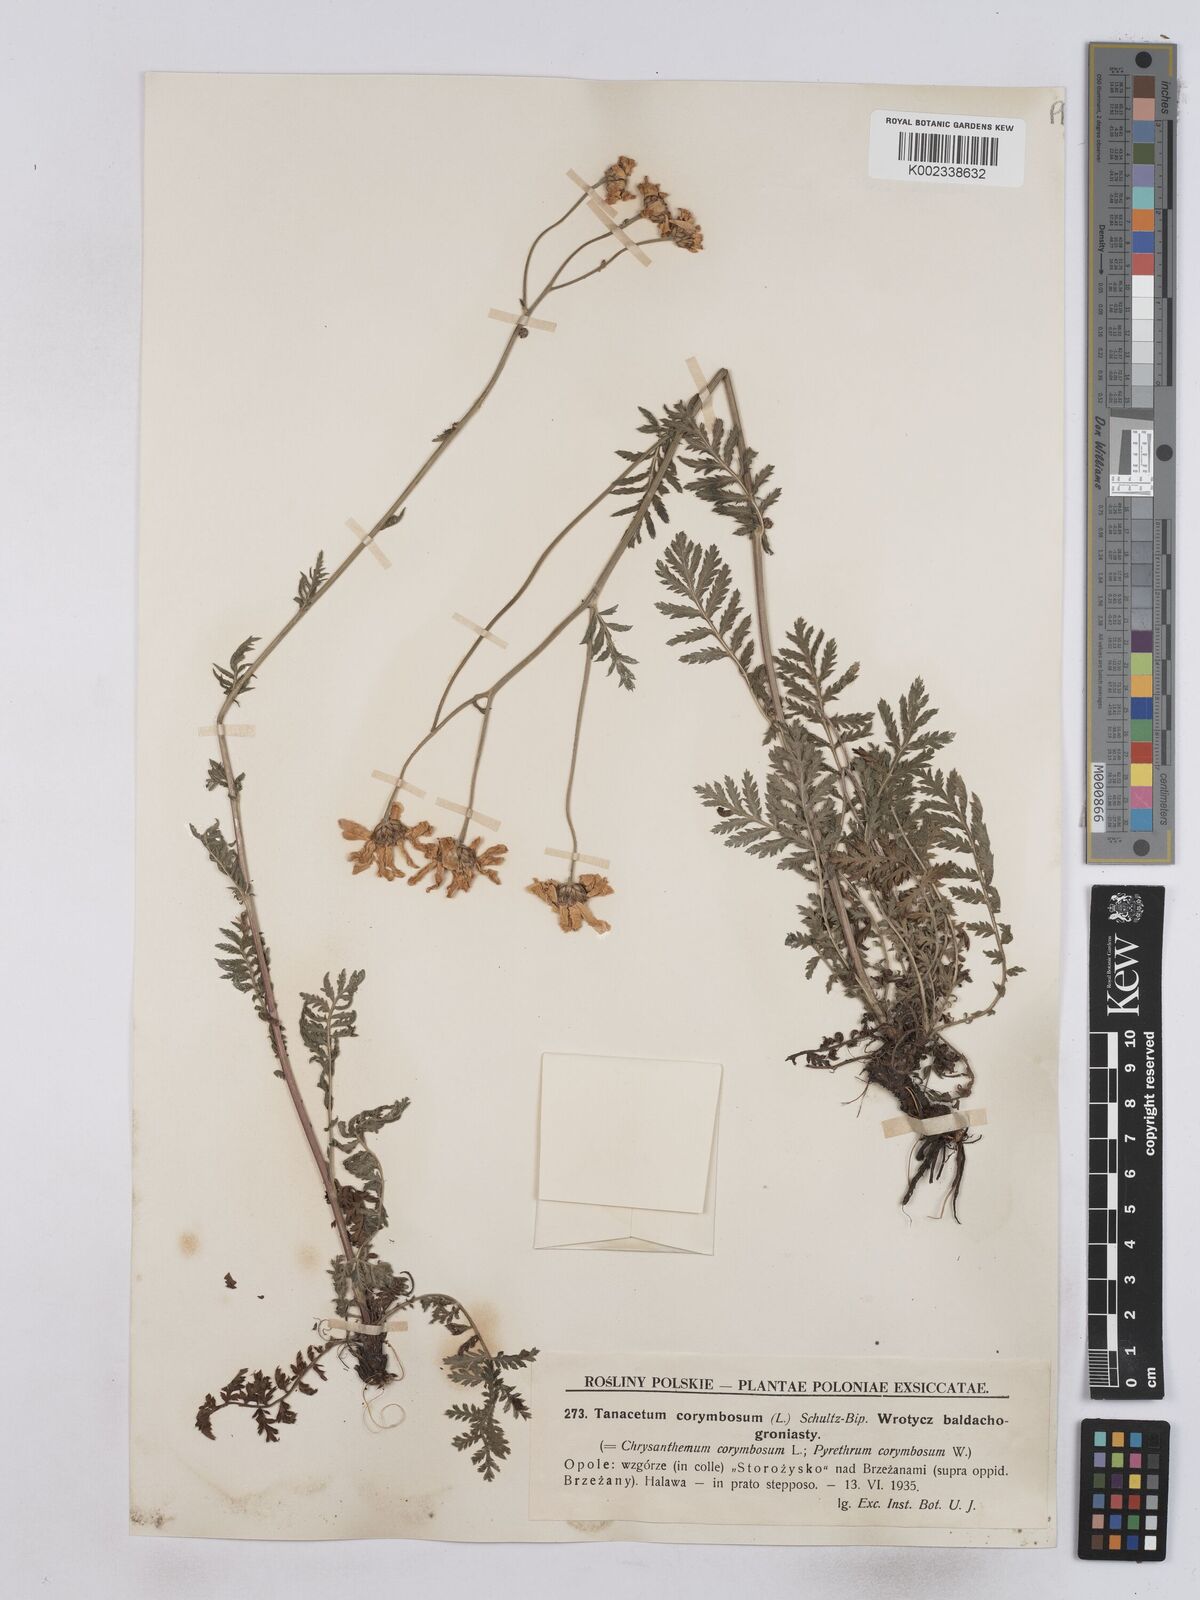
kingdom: Plantae
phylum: Tracheophyta
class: Magnoliopsida
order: Asterales
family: Asteraceae
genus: Tanacetum
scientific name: Tanacetum corymbosum
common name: Scentless feverfew
